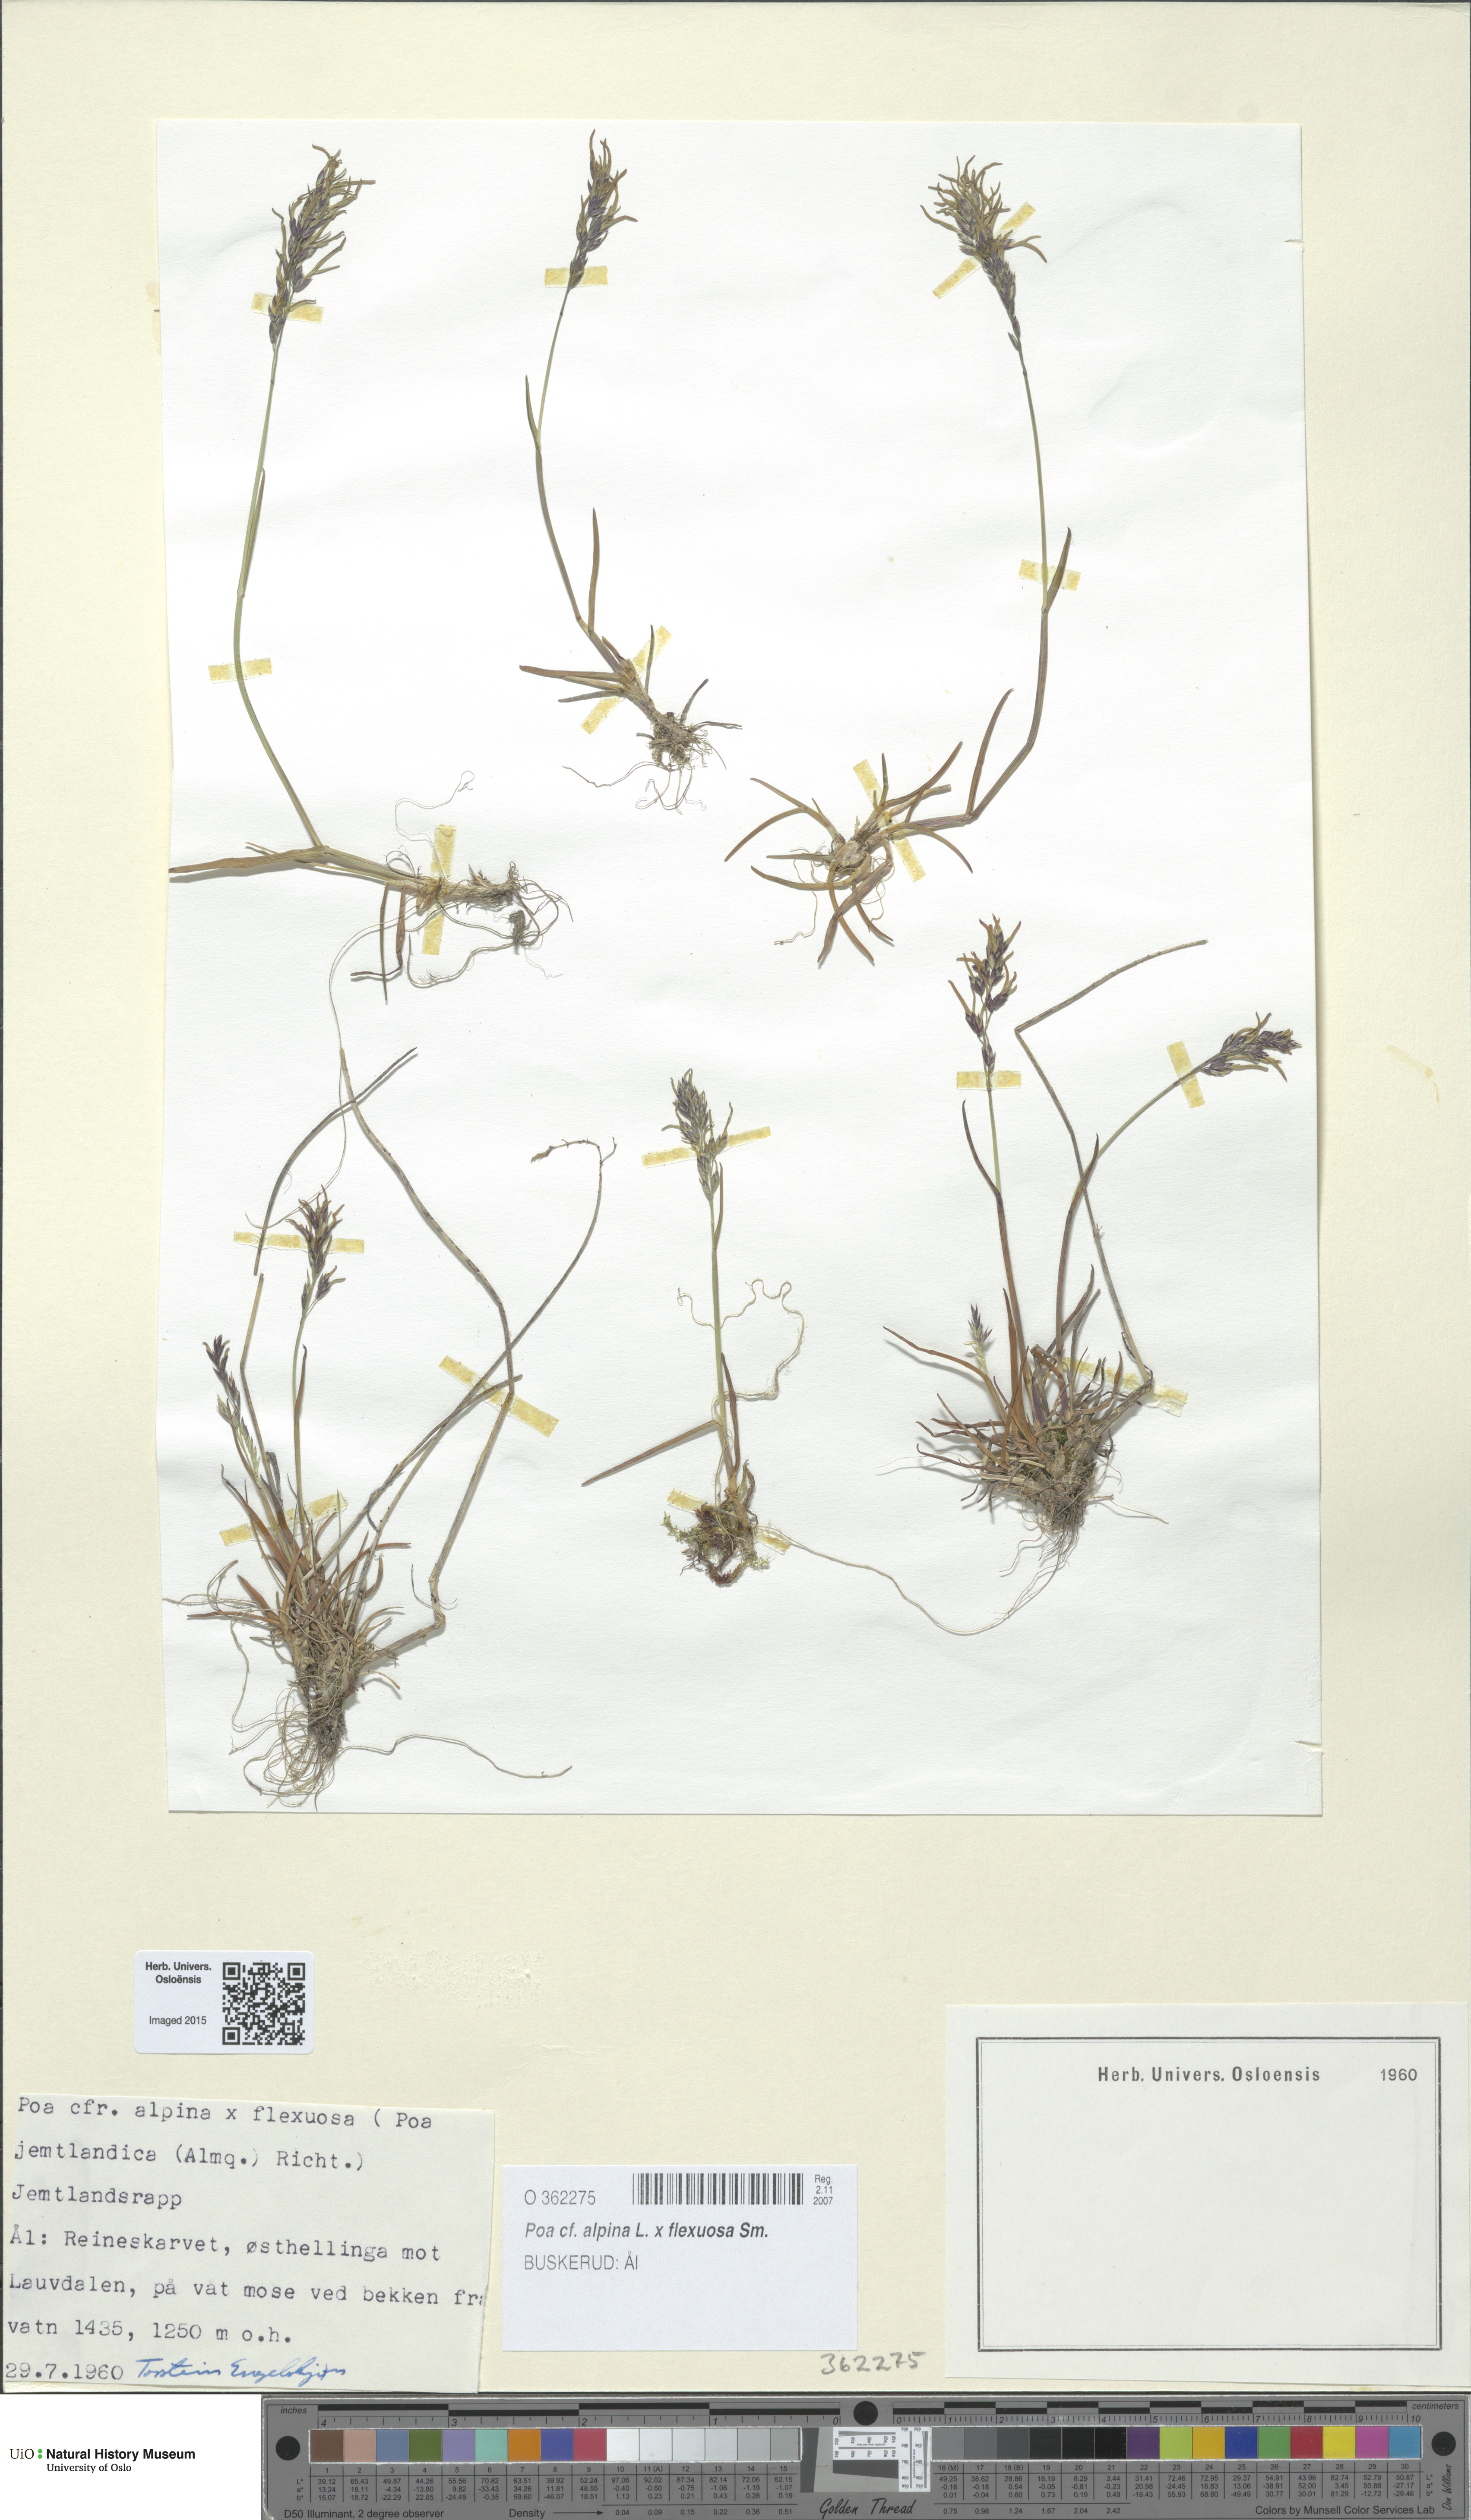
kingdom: Plantae
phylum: Tracheophyta
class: Liliopsida
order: Poales
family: Poaceae
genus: Poa
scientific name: Poa
